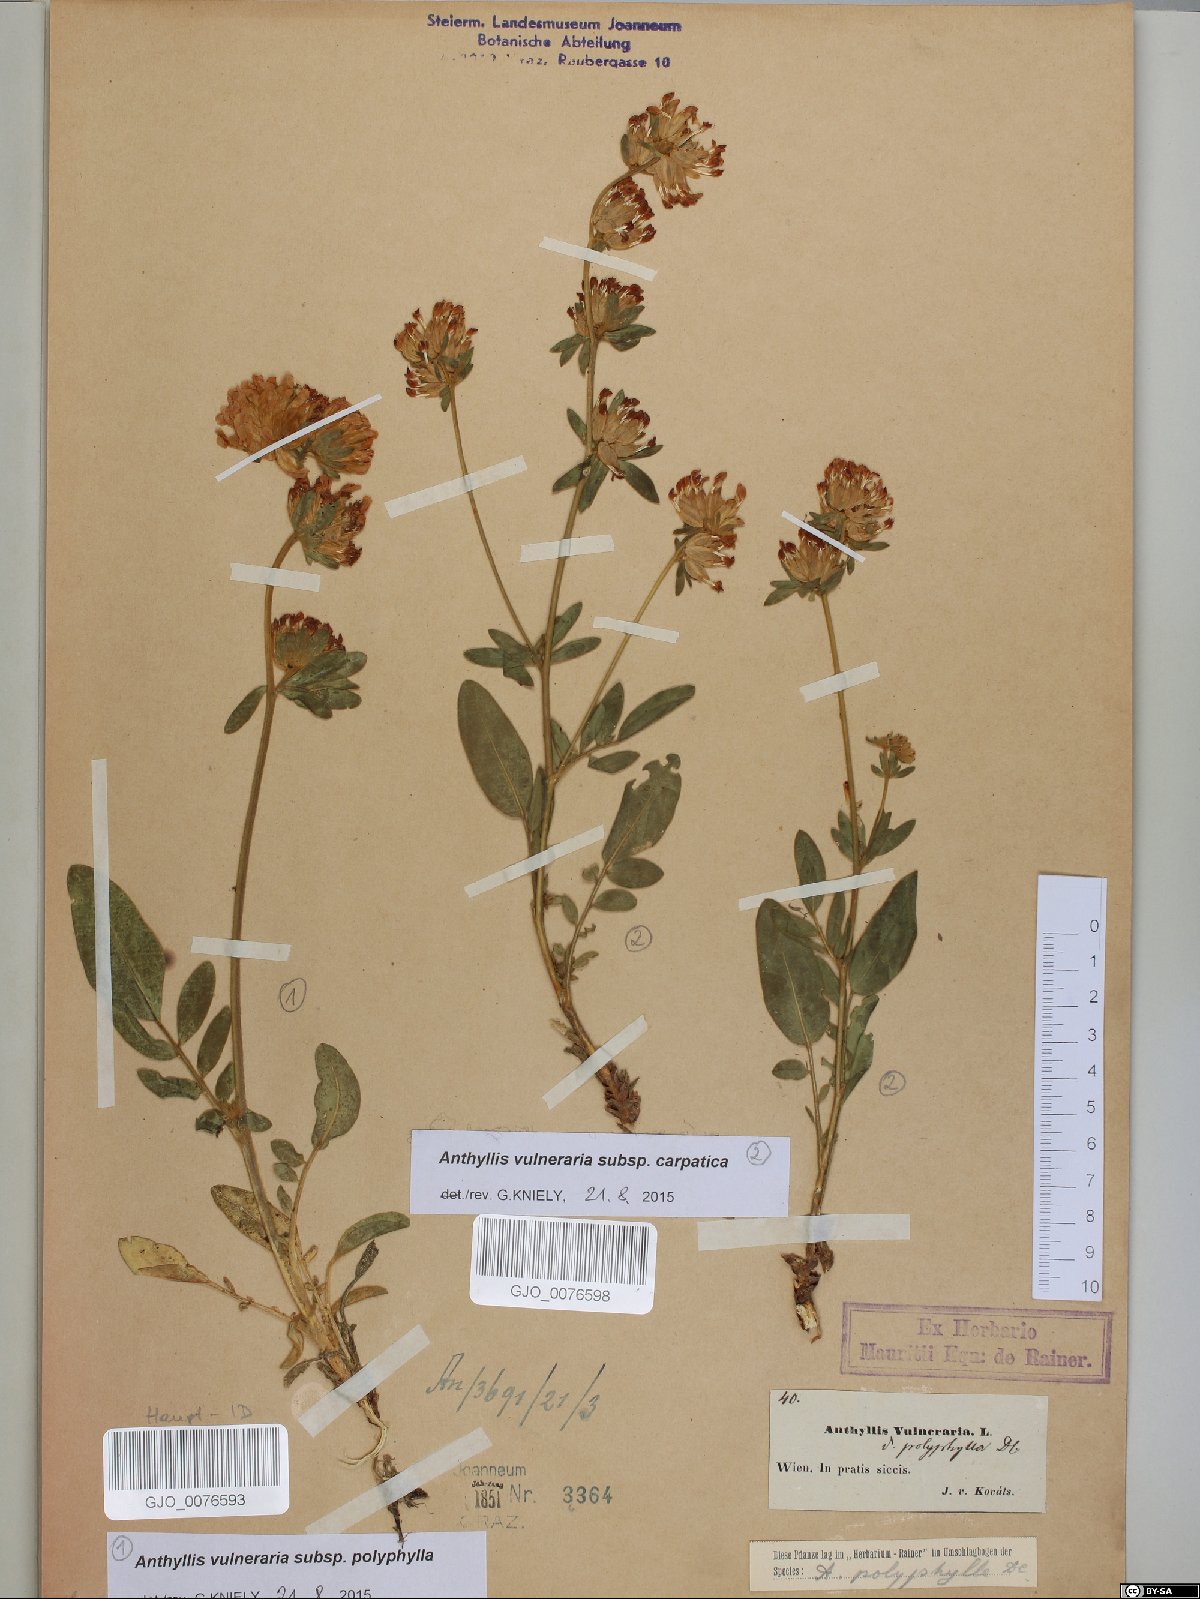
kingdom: Plantae
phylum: Tracheophyta
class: Magnoliopsida
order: Fabales
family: Fabaceae
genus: Anthyllis
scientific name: Anthyllis vulneraria
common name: Kidney vetch
